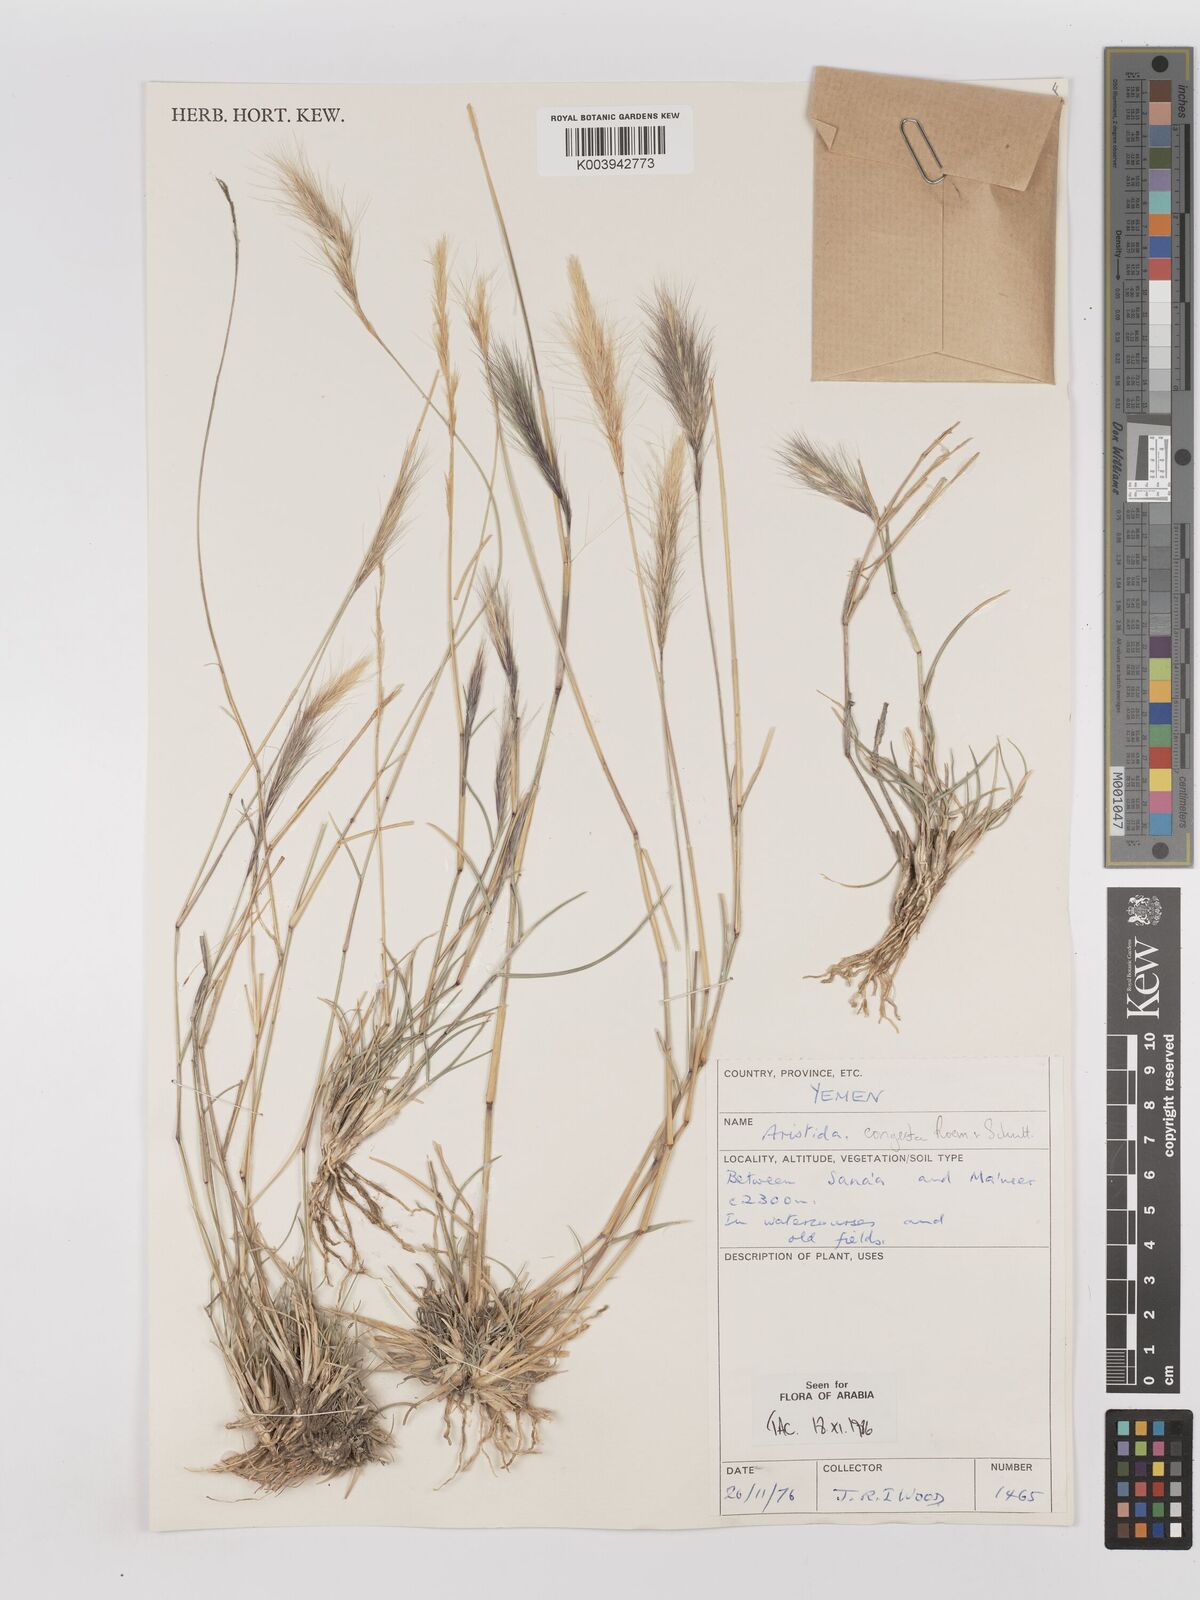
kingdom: Plantae
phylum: Tracheophyta
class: Liliopsida
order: Poales
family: Poaceae
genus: Aristida
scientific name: Aristida congesta
